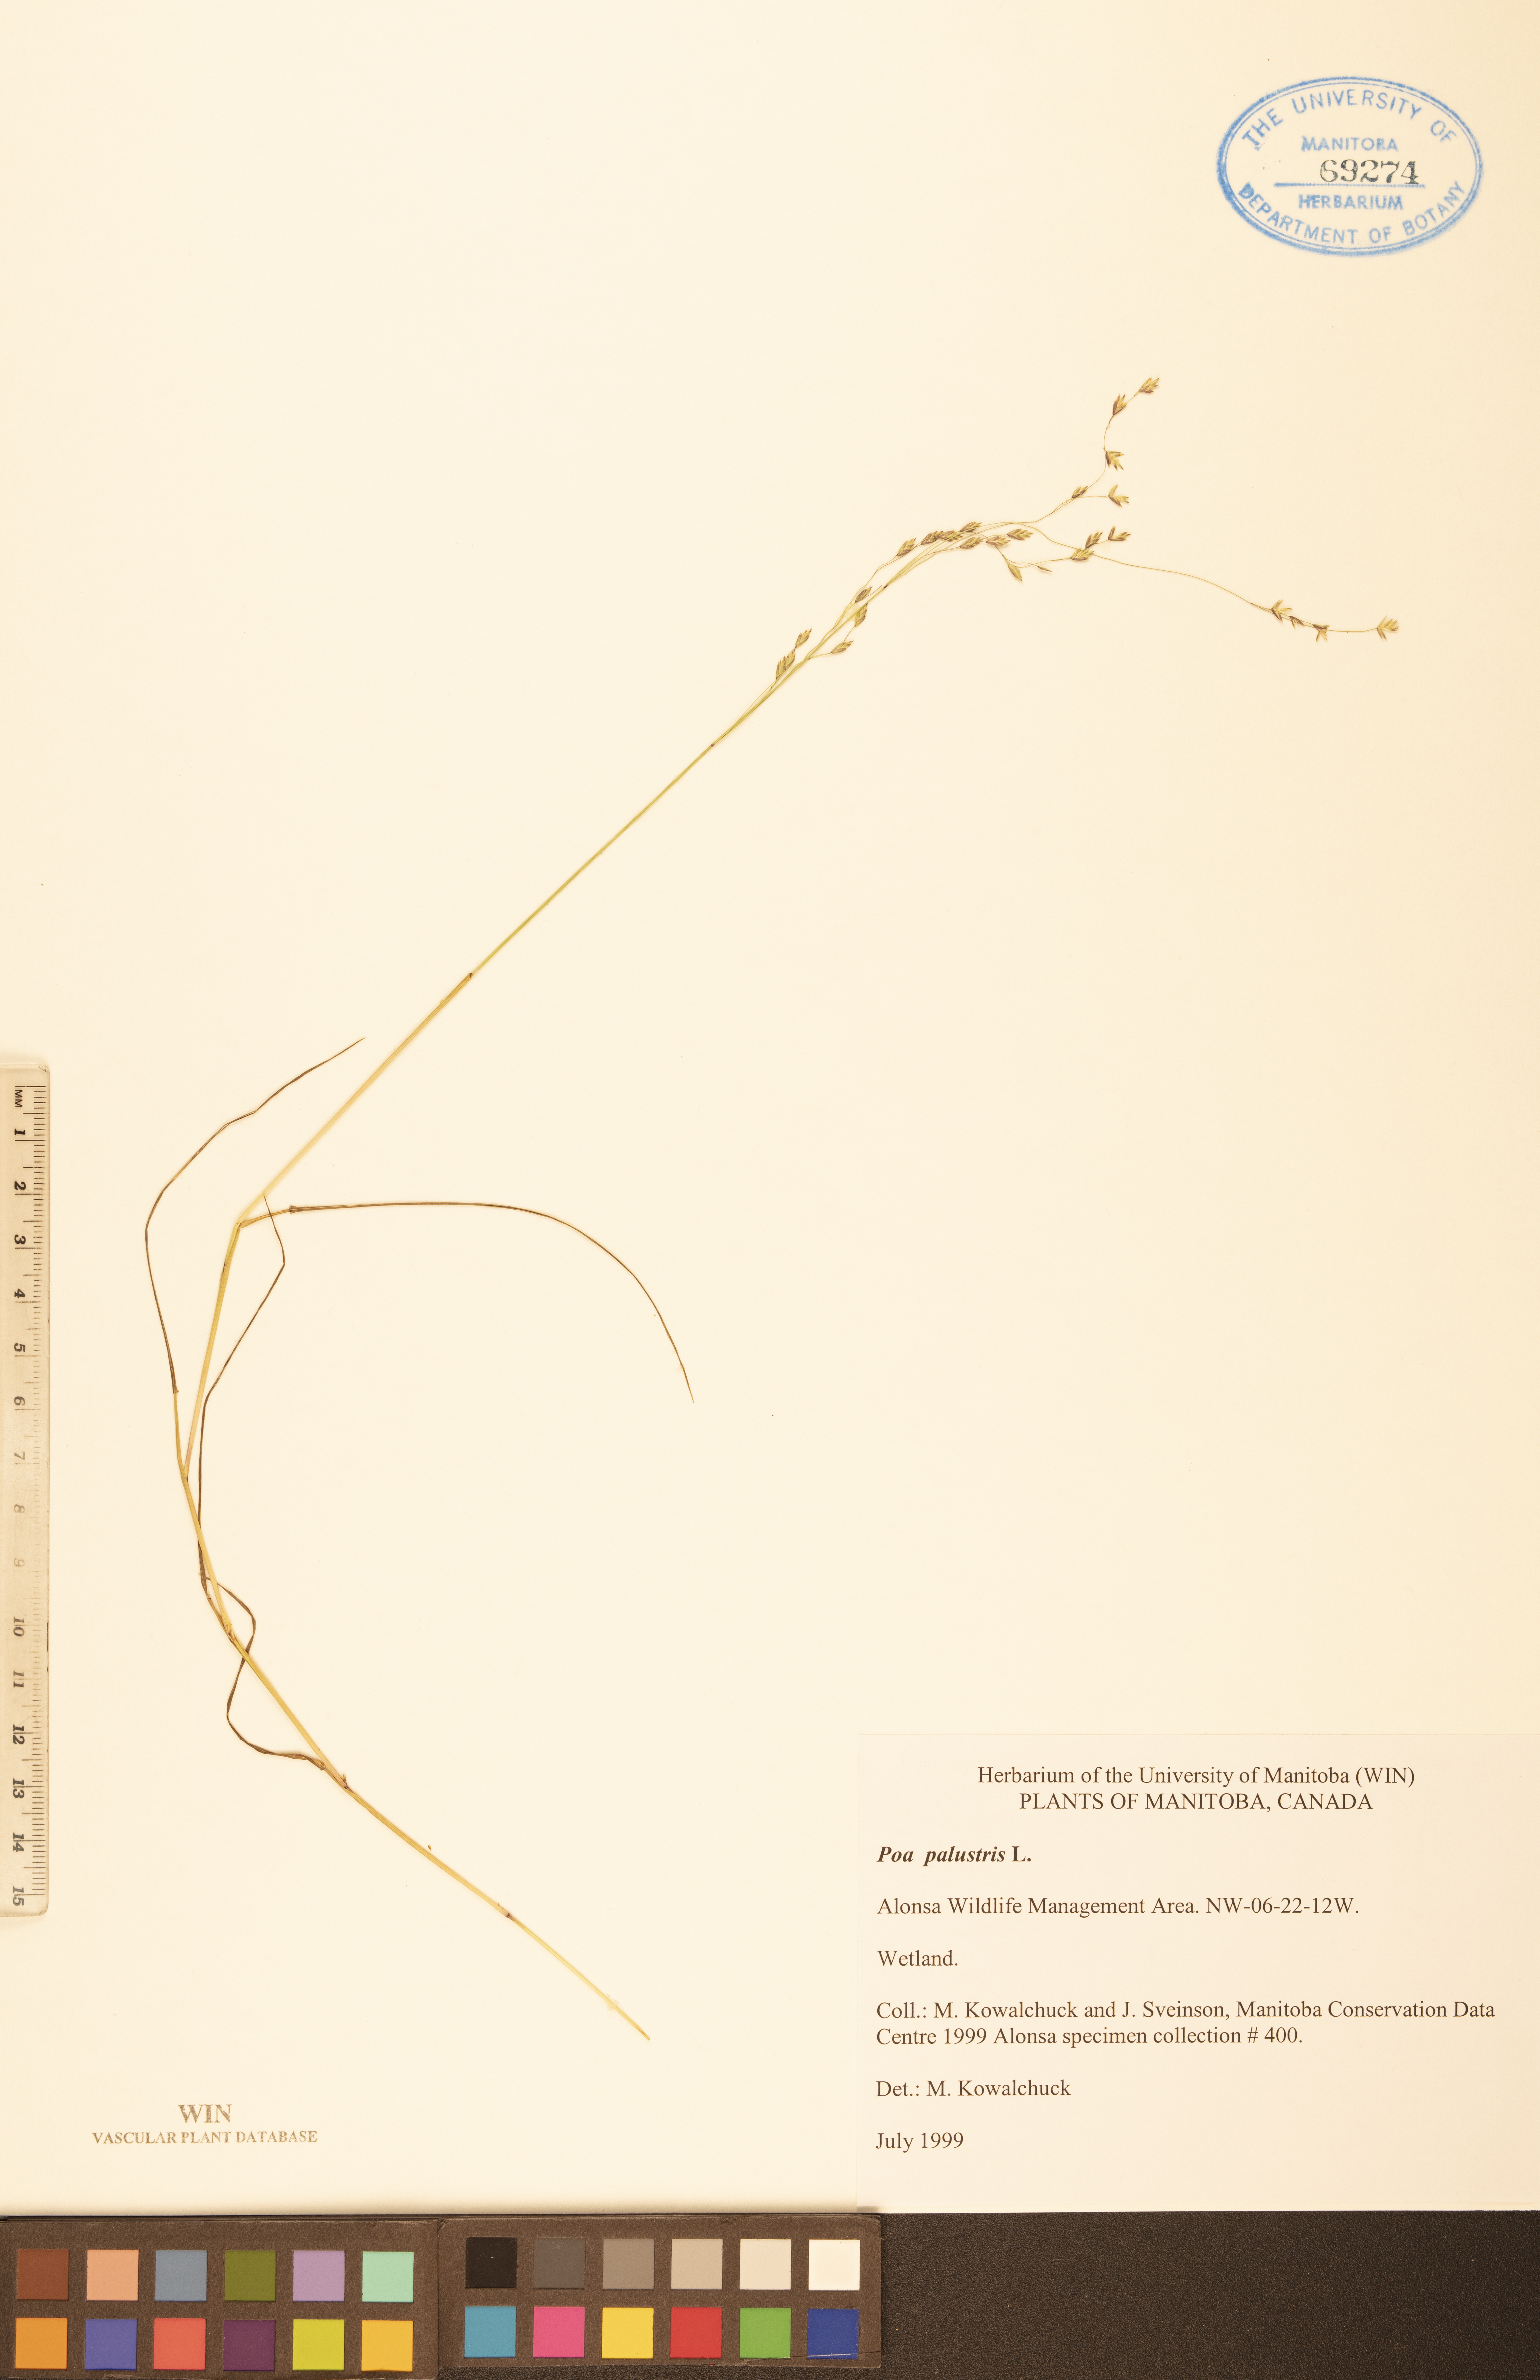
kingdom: Plantae
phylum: Tracheophyta
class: Liliopsida
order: Poales
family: Poaceae
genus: Poa
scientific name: Poa palustris
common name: Swamp meadow-grass
